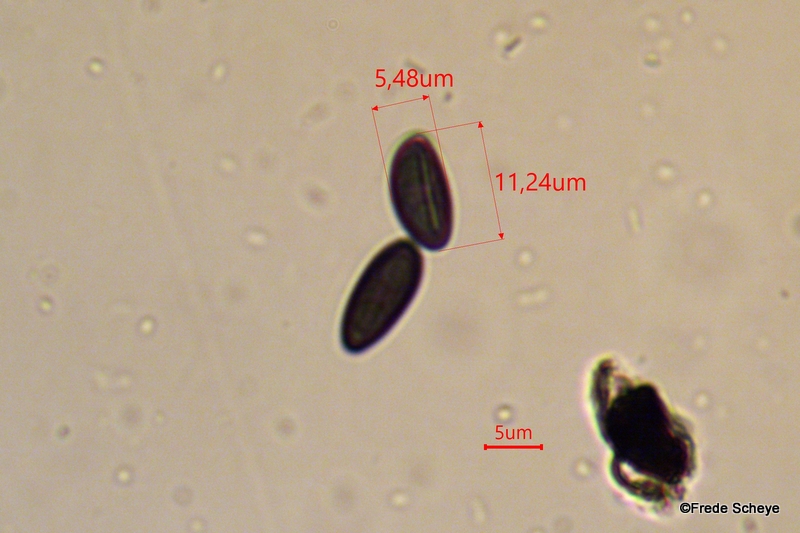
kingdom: Fungi
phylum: Ascomycota
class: Sordariomycetes
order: Xylariales
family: Xylariaceae
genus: Xylaria
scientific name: Xylaria hypoxylon
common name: grenet stødsvamp
